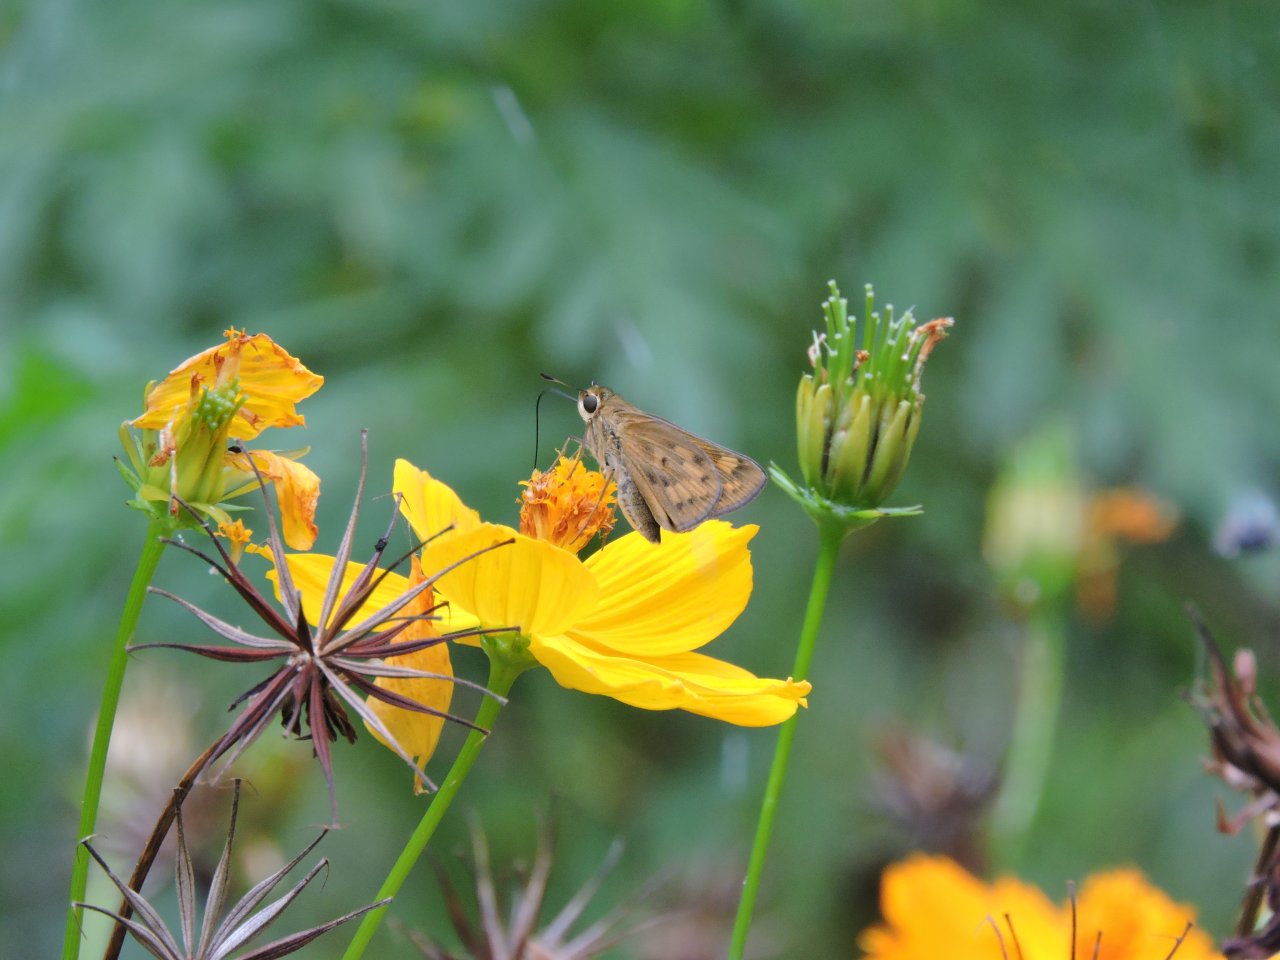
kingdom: Animalia
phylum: Arthropoda
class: Insecta
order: Lepidoptera
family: Hesperiidae
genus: Hylephila
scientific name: Hylephila phyleus
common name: Fiery Skipper
